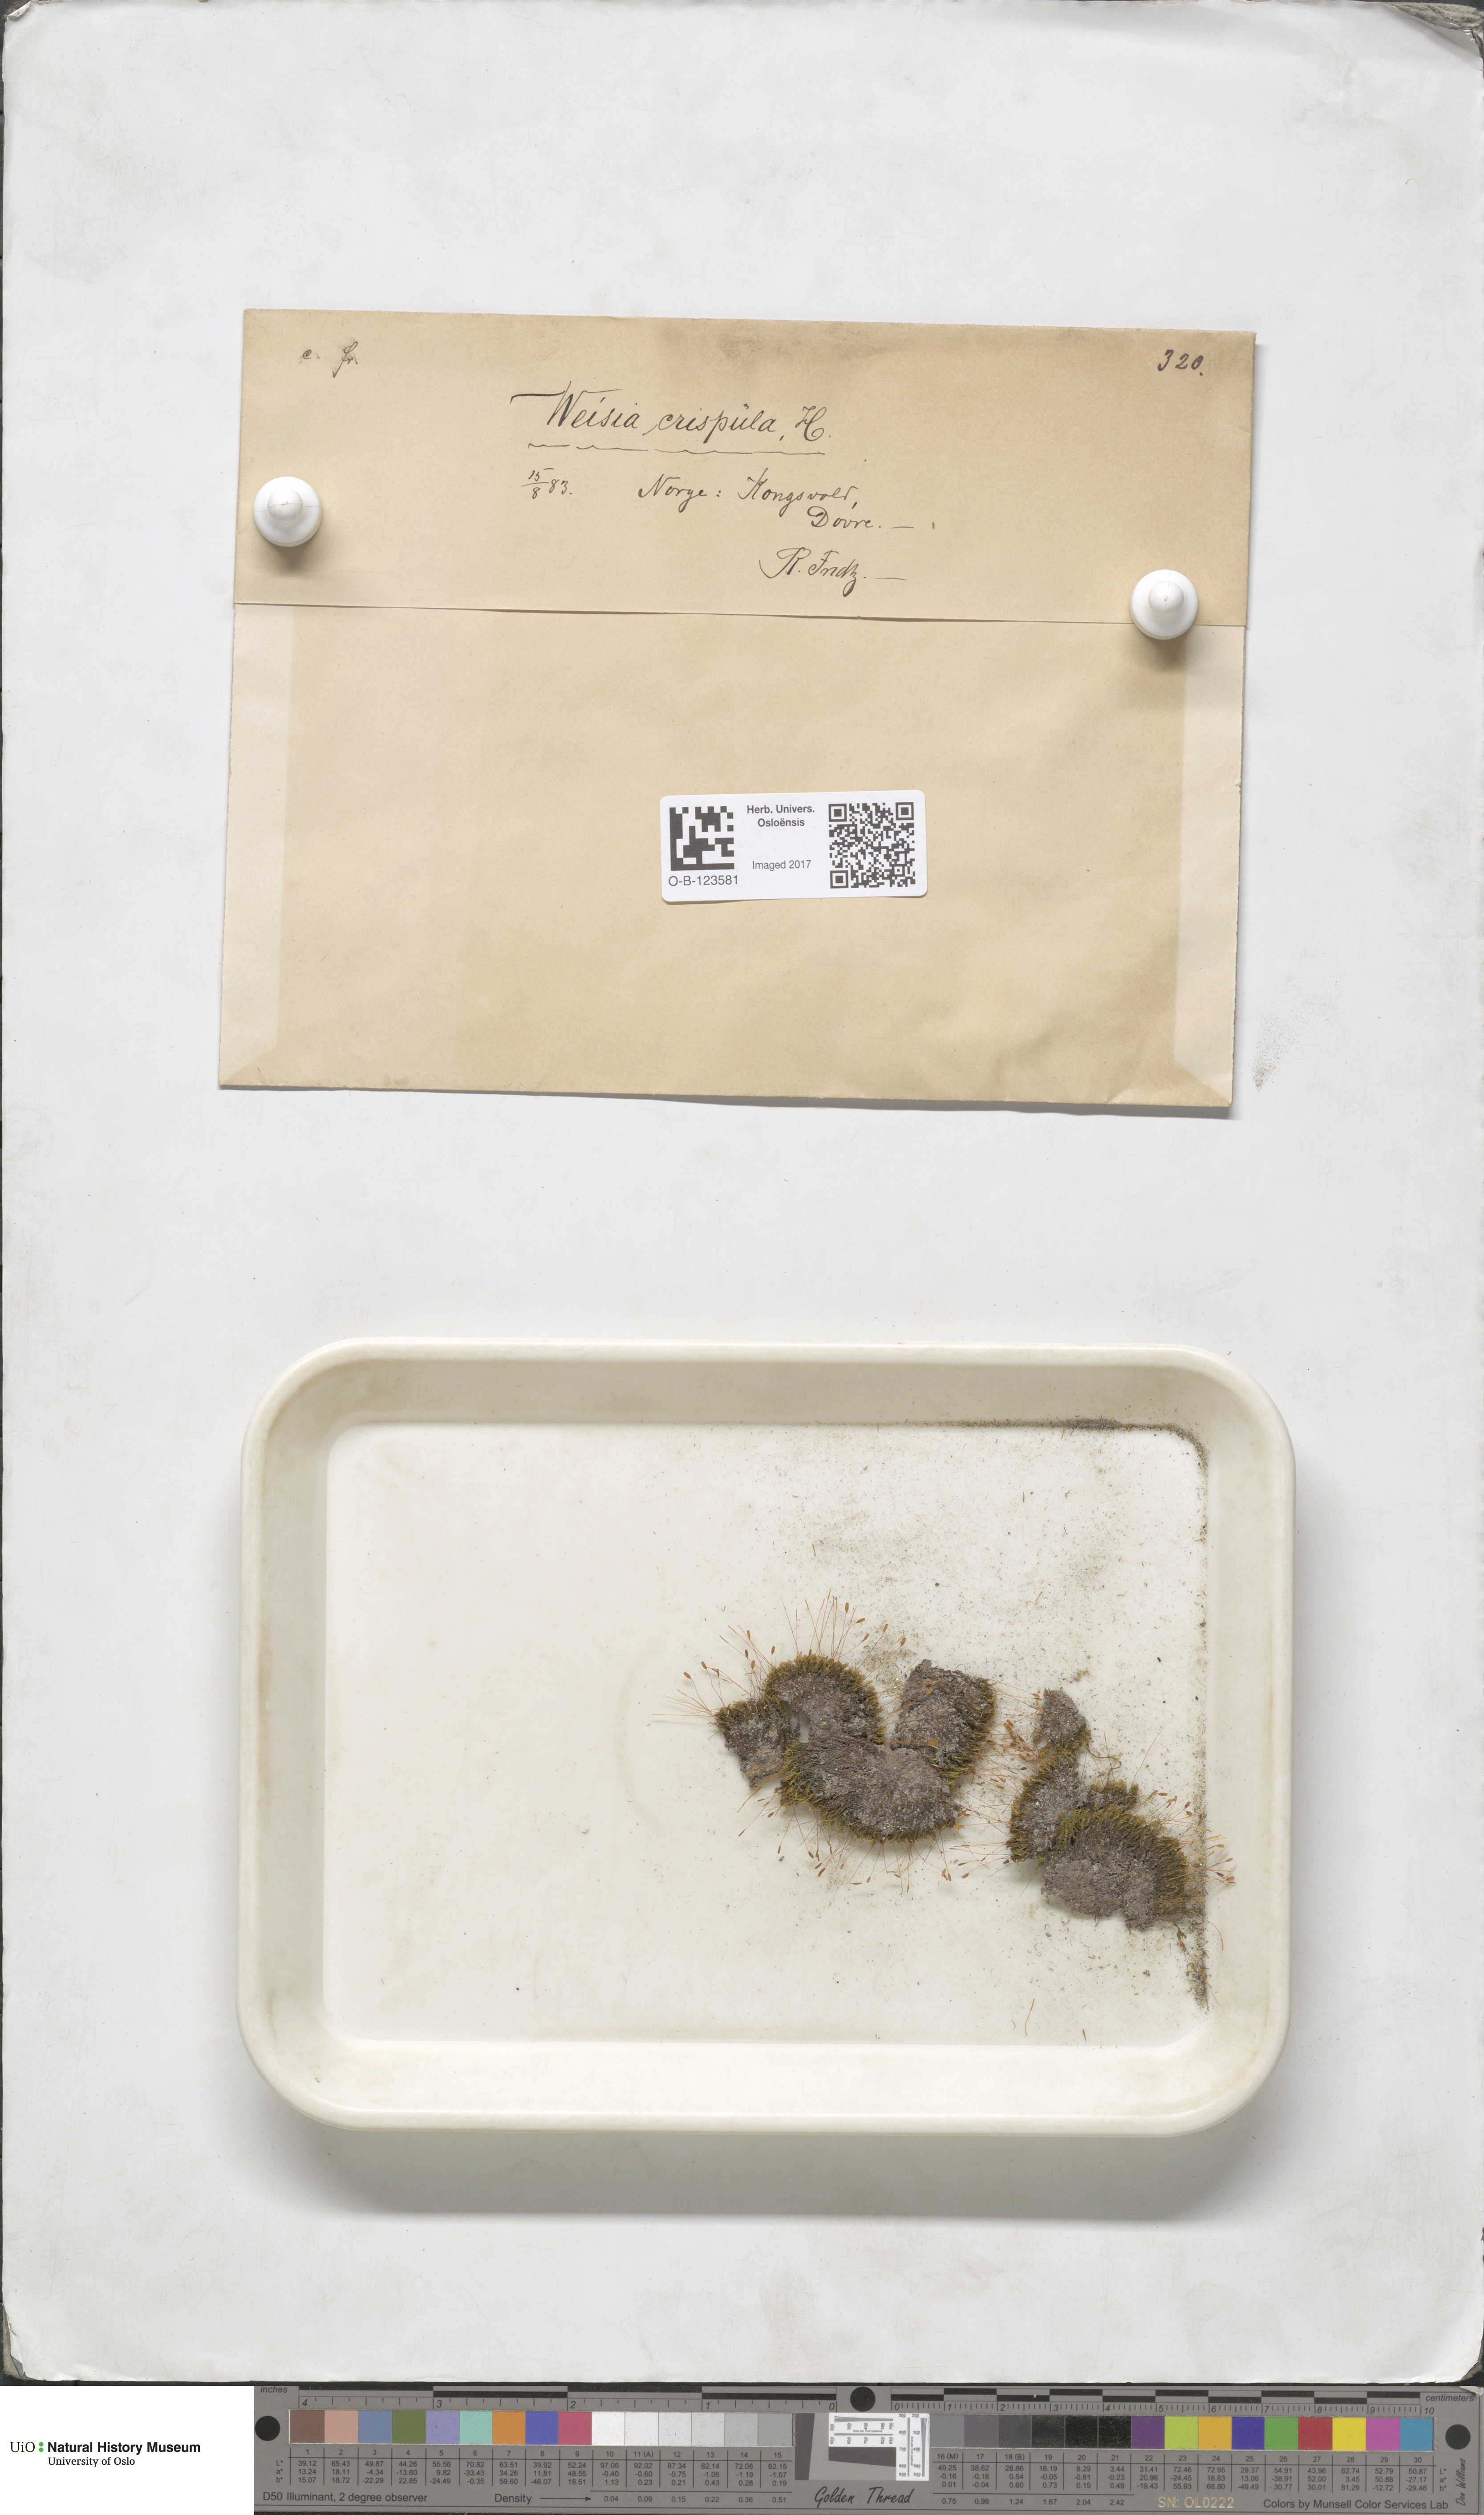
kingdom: Plantae
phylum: Bryophyta
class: Bryopsida
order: Scouleriales
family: Hymenolomataceae
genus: Hymenoloma
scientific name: Hymenoloma crispulum
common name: Mountain pincushion
